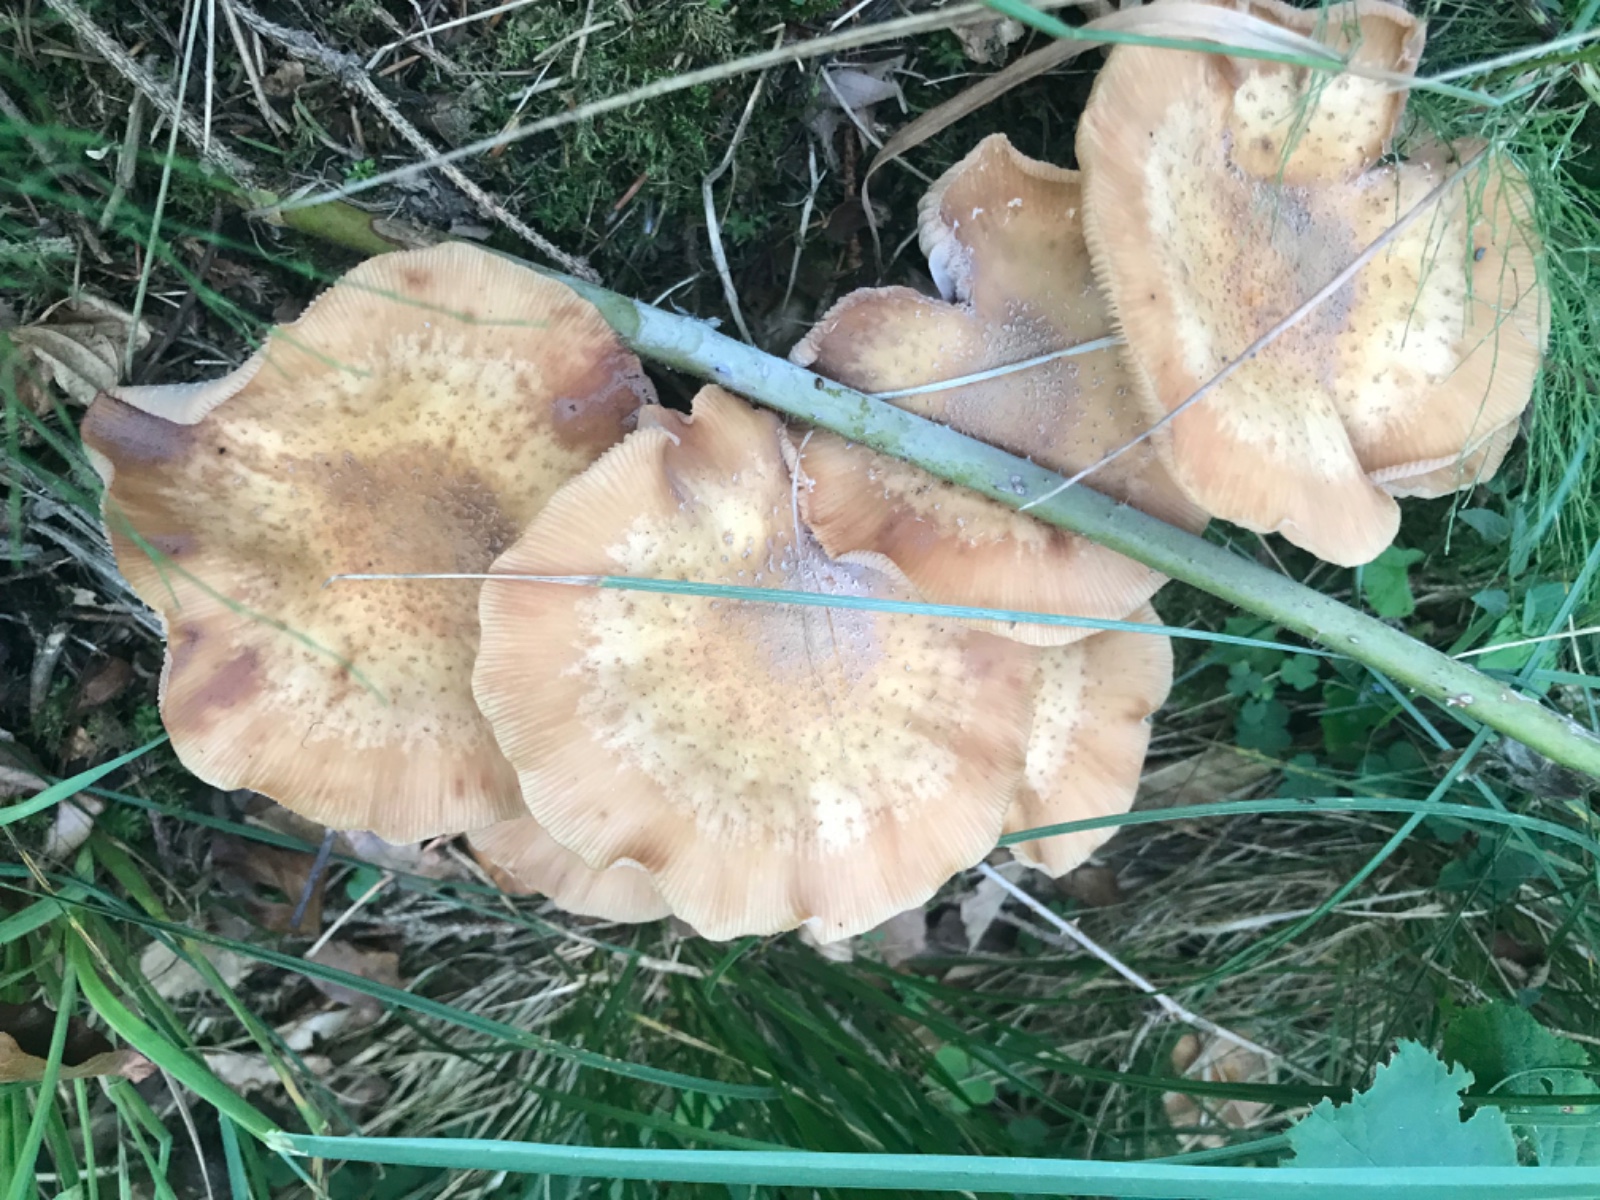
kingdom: Fungi
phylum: Basidiomycota
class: Agaricomycetes
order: Agaricales
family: Physalacriaceae
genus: Armillaria
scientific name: Armillaria
